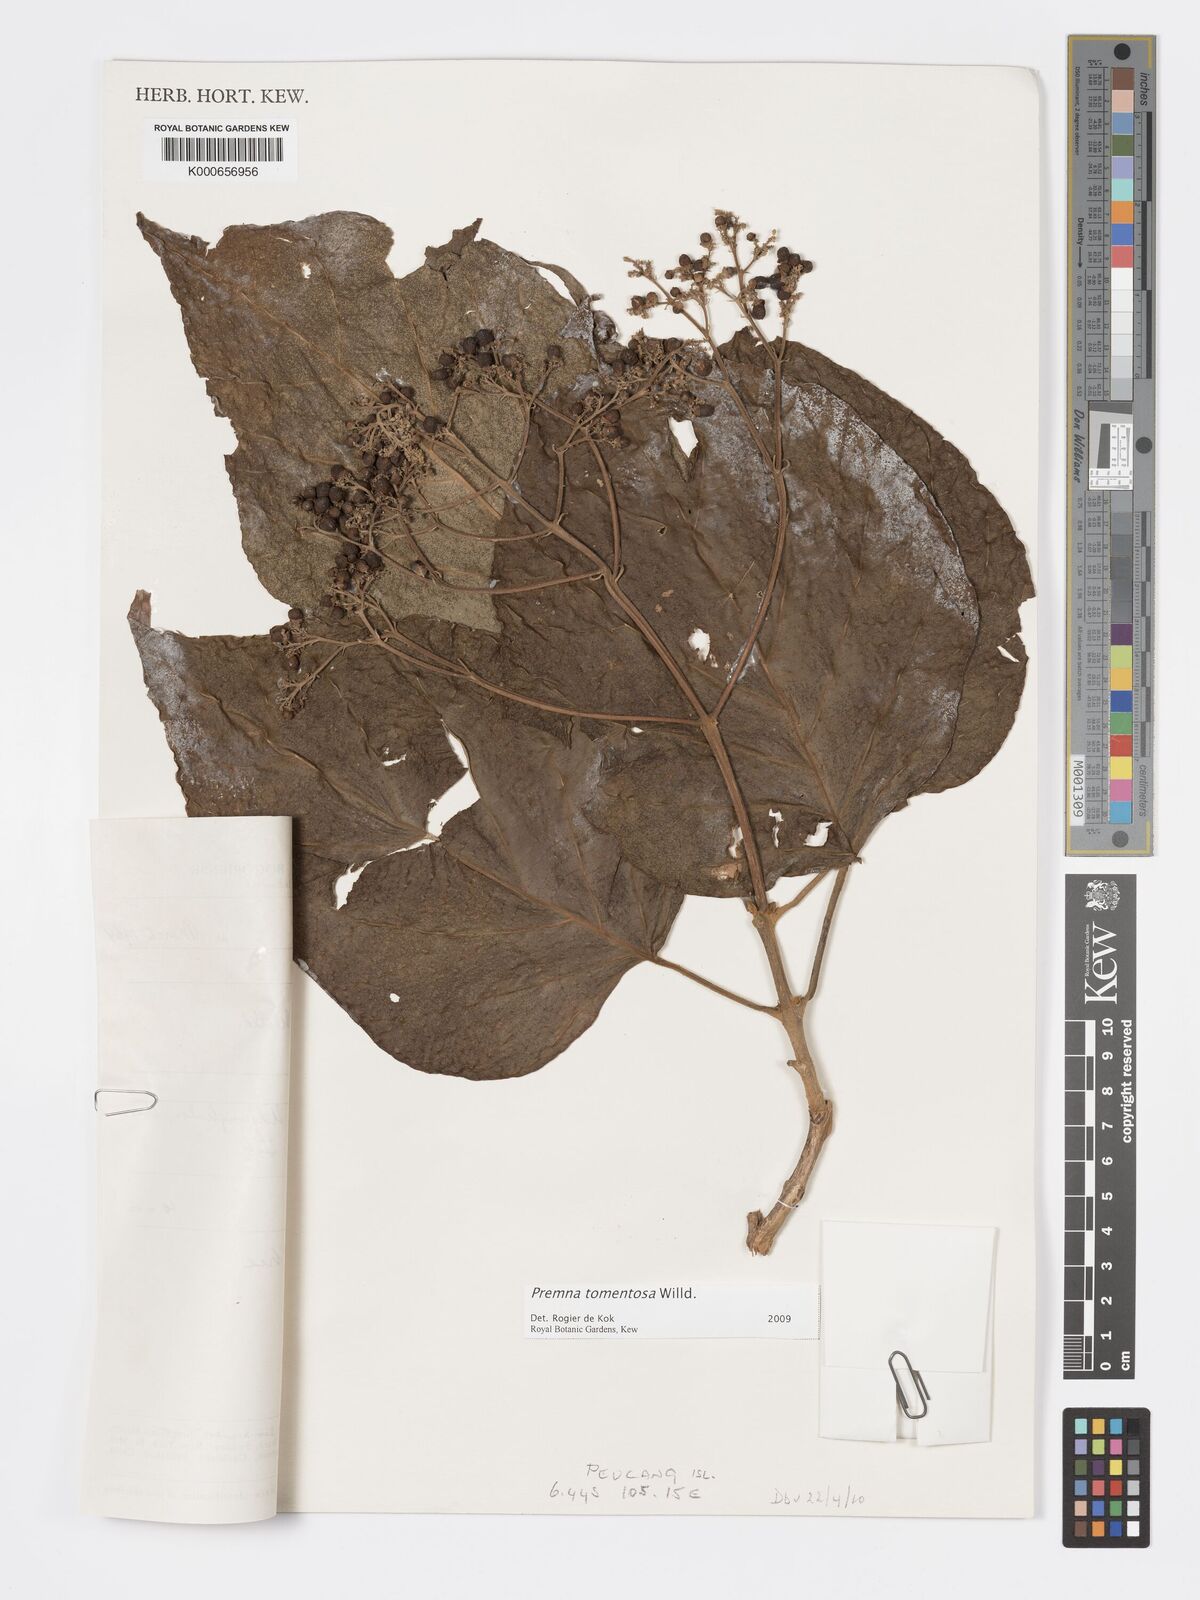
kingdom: Plantae
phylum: Tracheophyta
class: Magnoliopsida
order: Lamiales
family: Lamiaceae
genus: Premna
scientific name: Premna tomentosa
